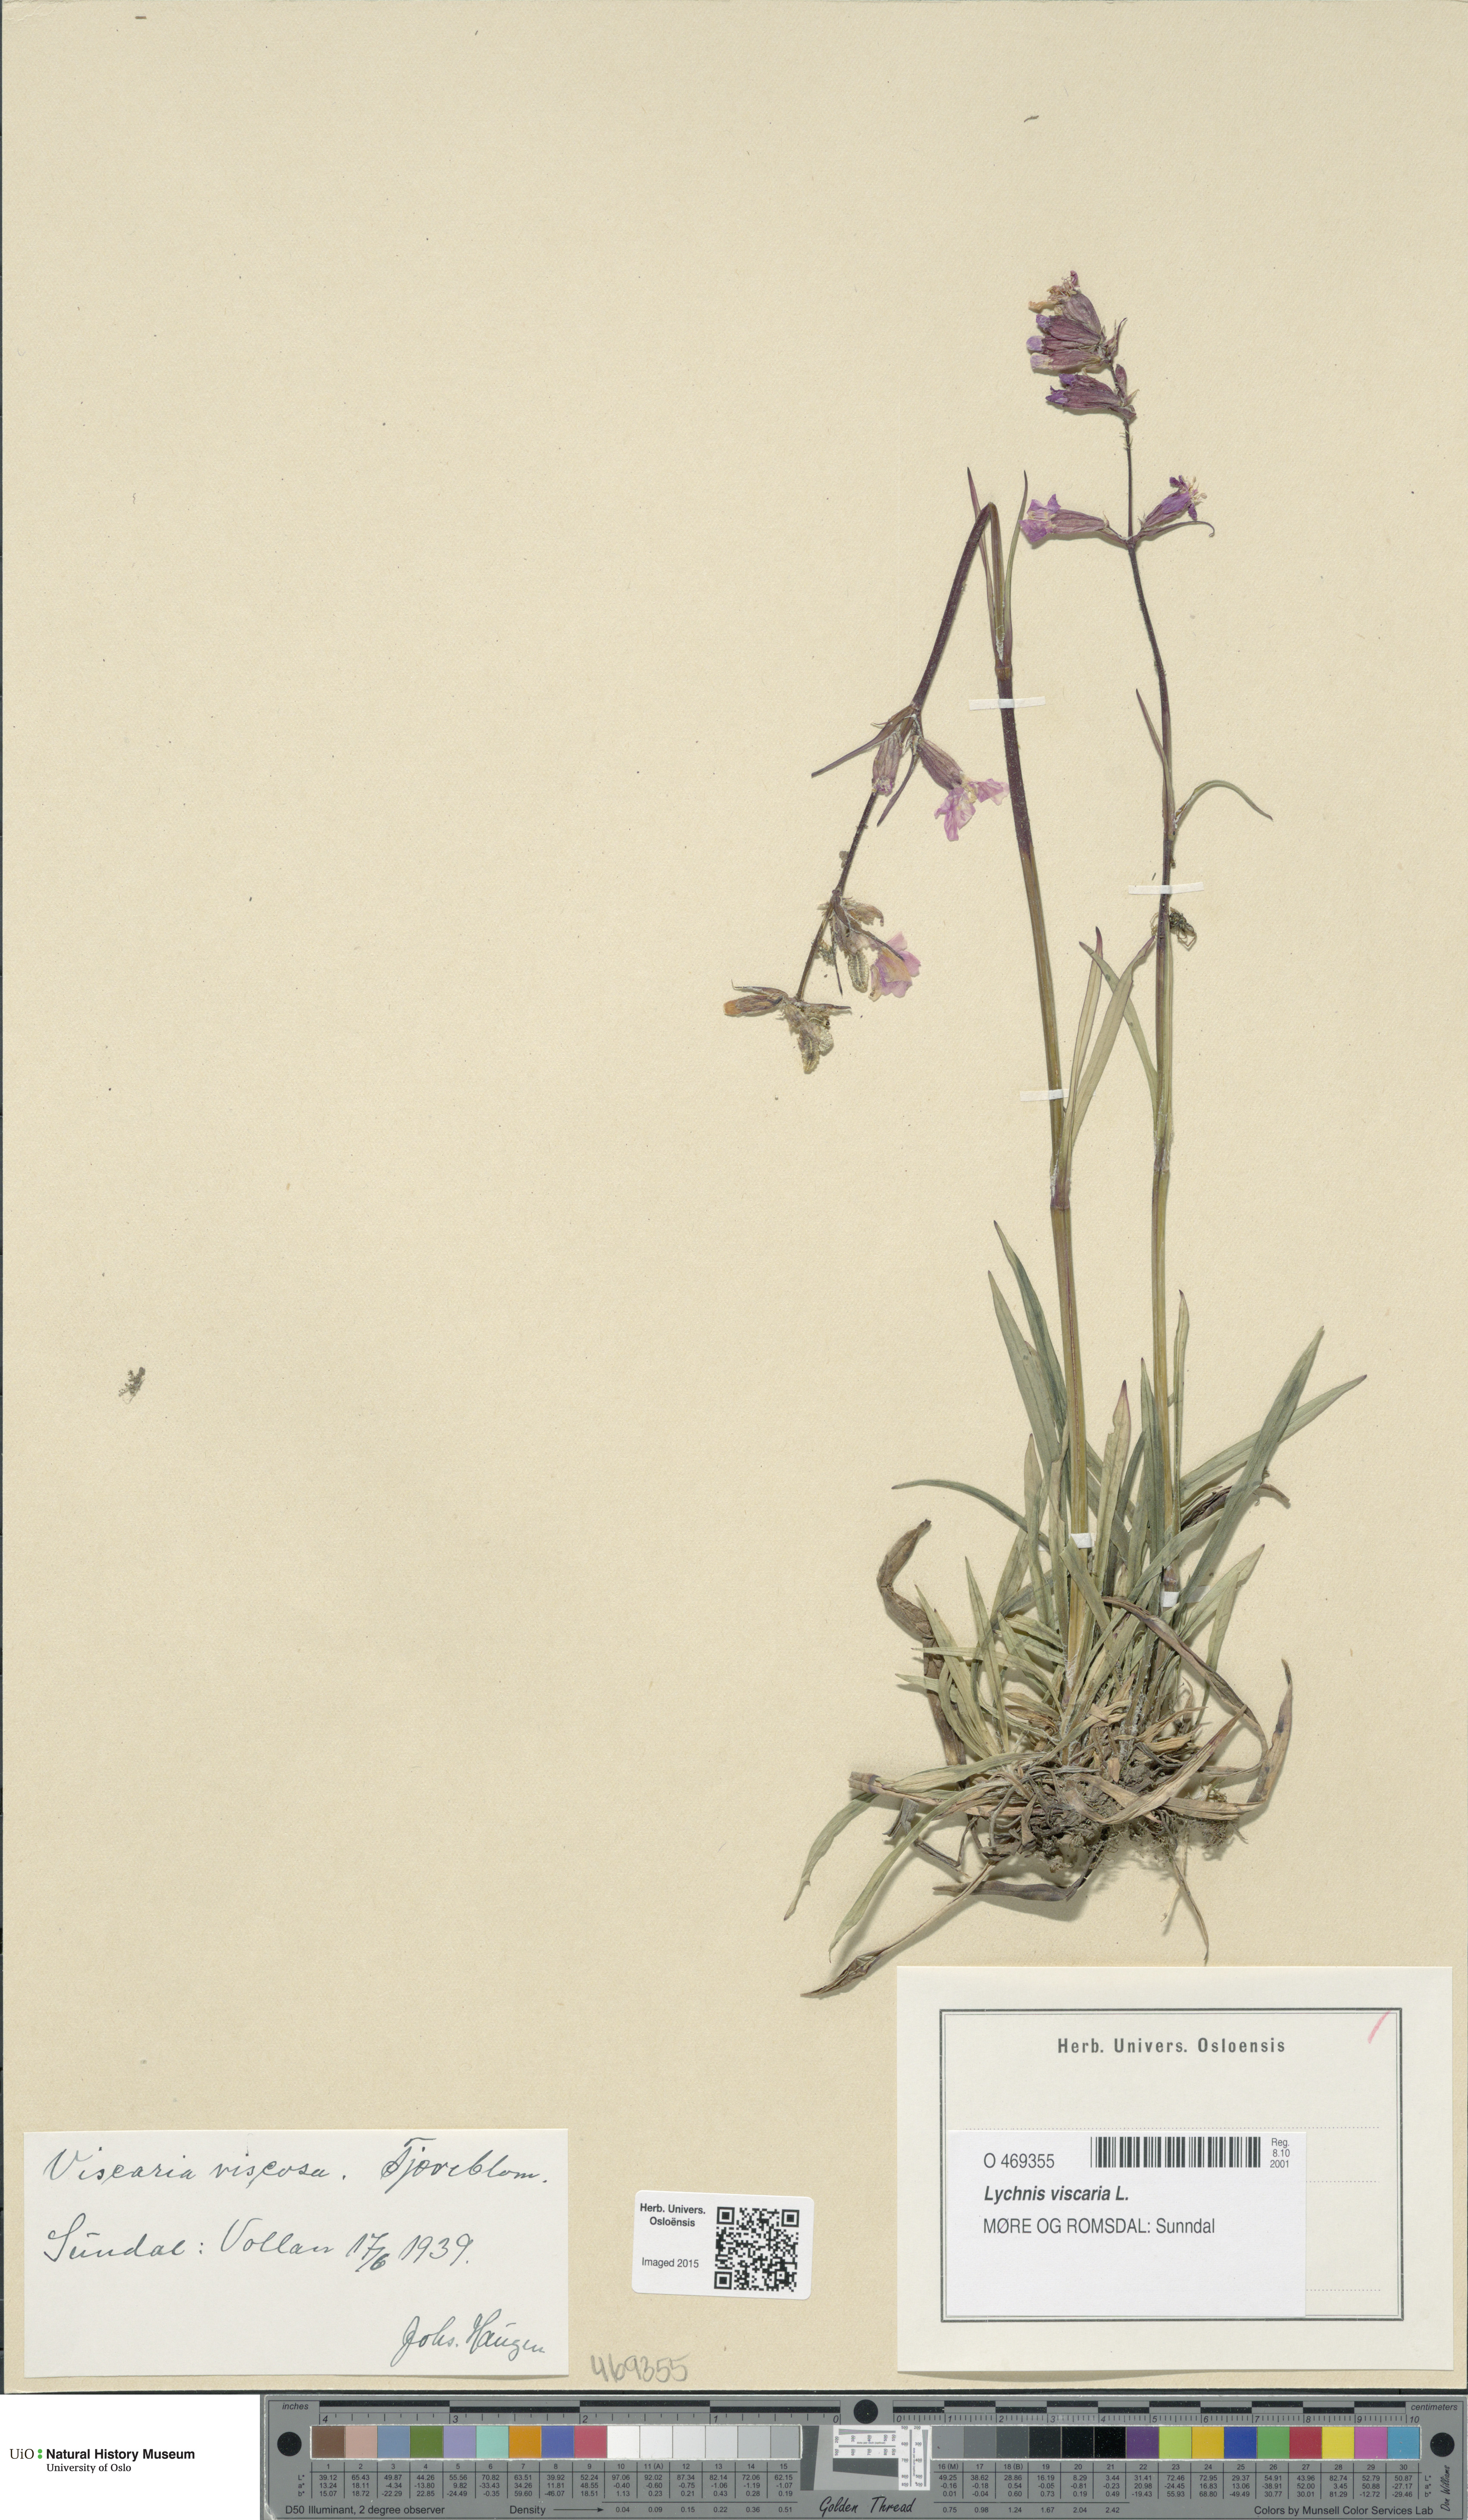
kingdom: Plantae
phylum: Tracheophyta
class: Magnoliopsida
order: Caryophyllales
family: Caryophyllaceae
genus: Viscaria
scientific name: Viscaria vulgaris
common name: Clammy campion
